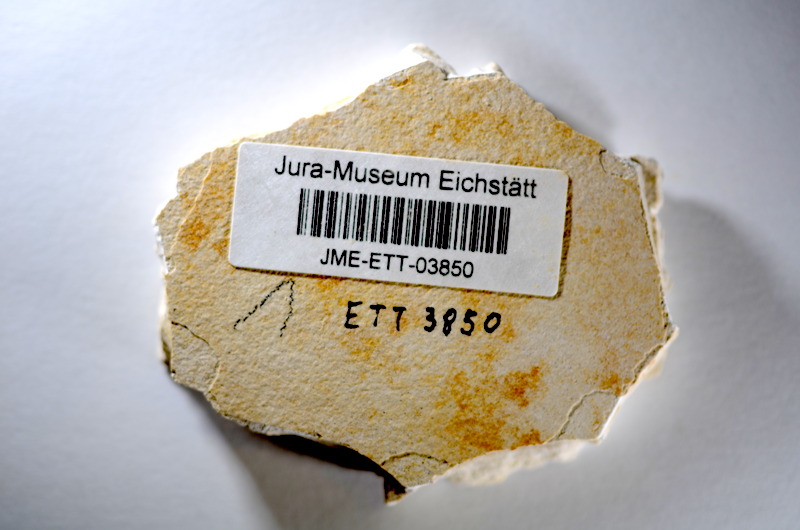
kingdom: Animalia
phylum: Chordata
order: Salmoniformes
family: Orthogonikleithridae
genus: Orthogonikleithrus
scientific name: Orthogonikleithrus hoelli
